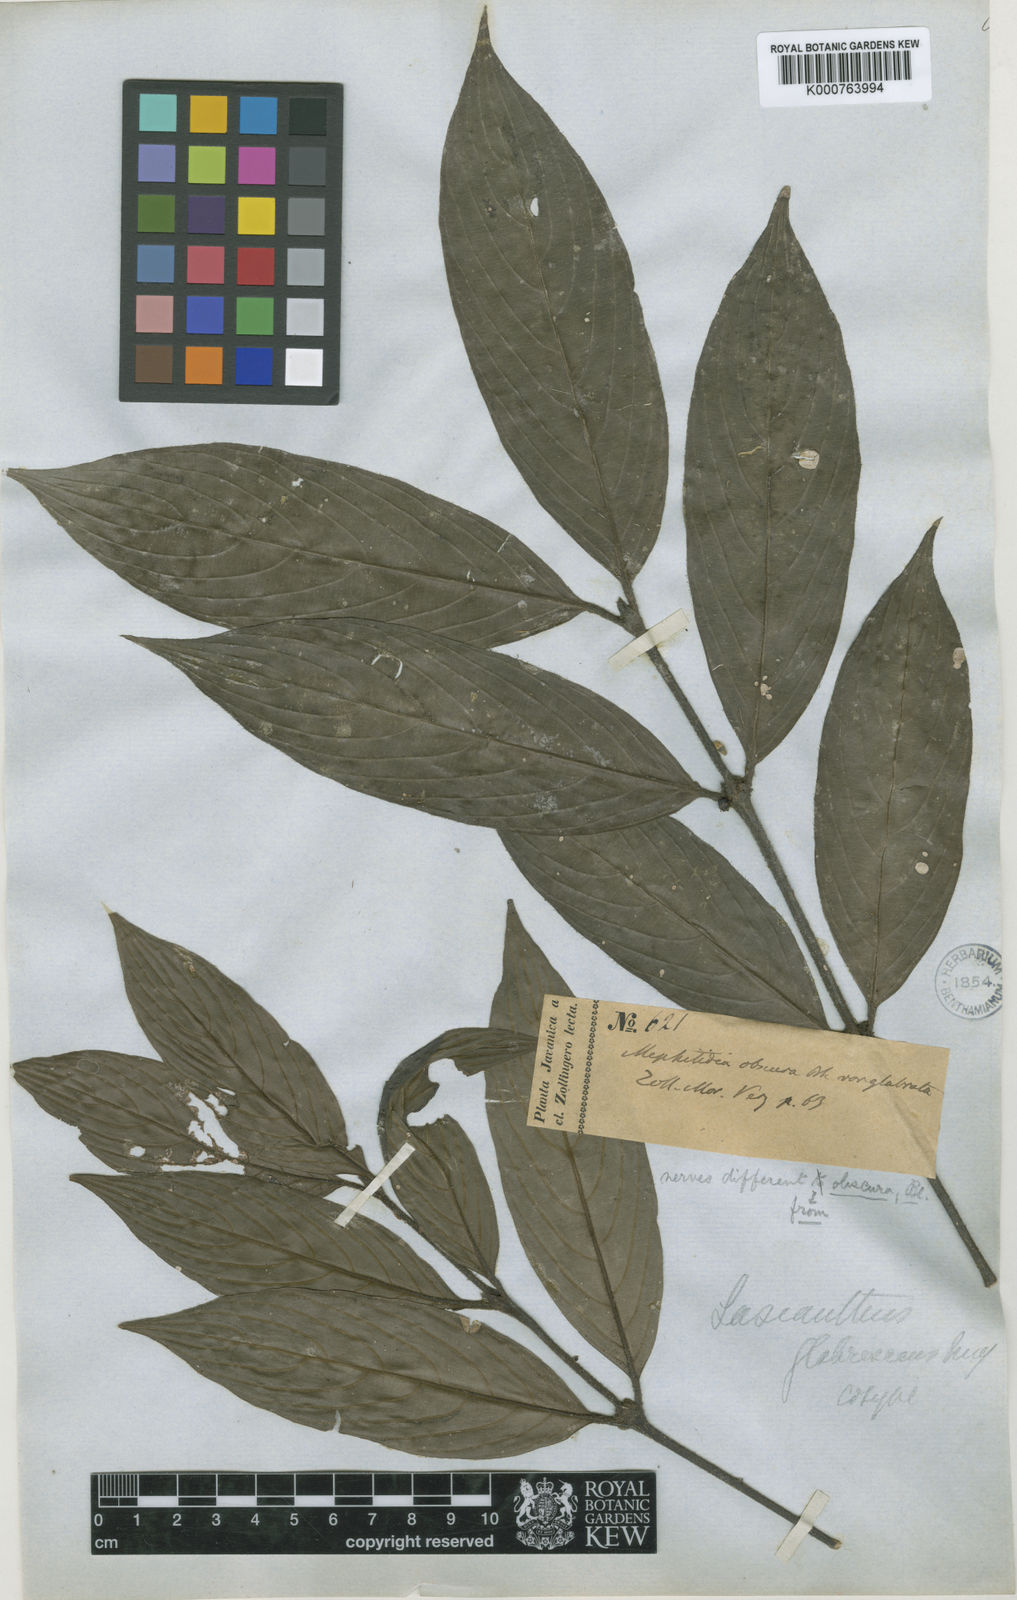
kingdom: Plantae
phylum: Tracheophyta
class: Magnoliopsida
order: Gentianales
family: Rubiaceae
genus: Lasianthus
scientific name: Lasianthus chrysoneurus
